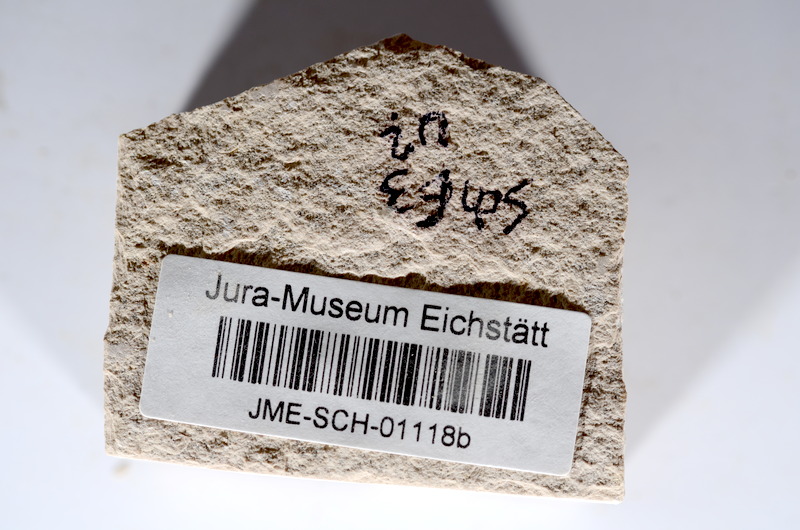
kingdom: Animalia
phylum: Chordata
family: Ascalaboidae
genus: Tharsis
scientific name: Tharsis dubius
